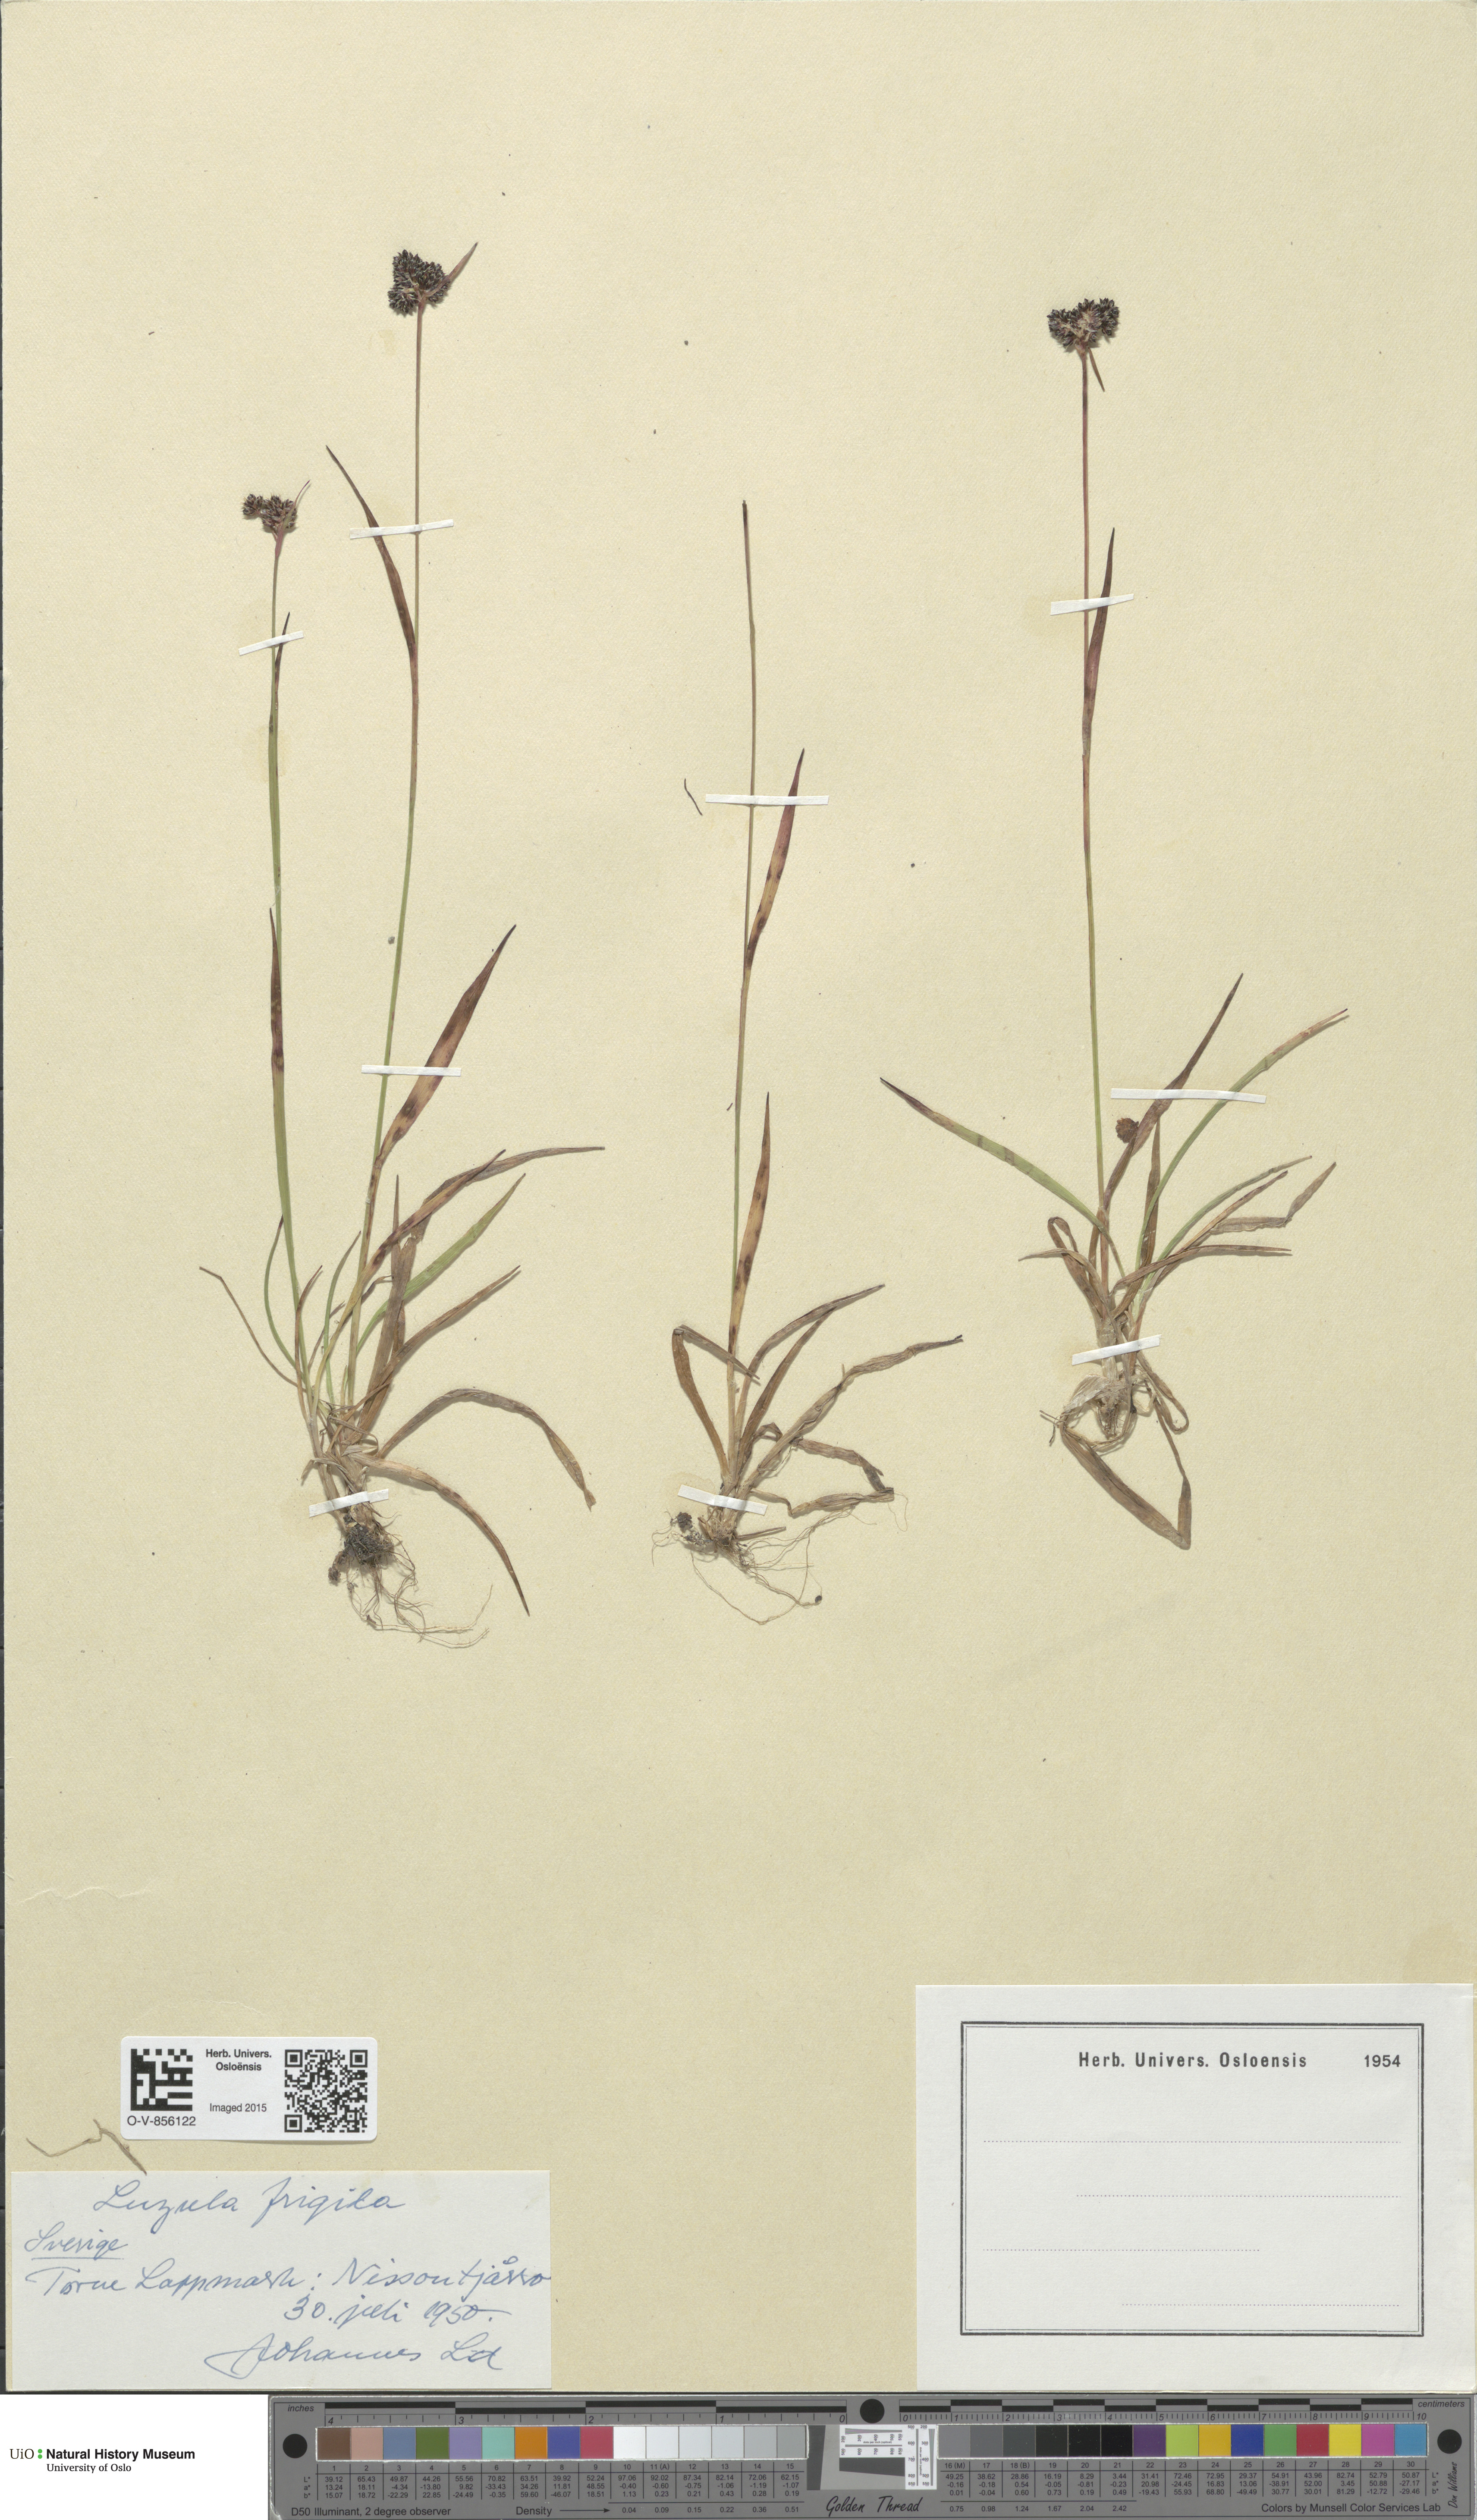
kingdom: Plantae
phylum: Tracheophyta
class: Liliopsida
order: Poales
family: Juncaceae
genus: Luzula
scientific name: Luzula multiflora
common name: Heath wood-rush
